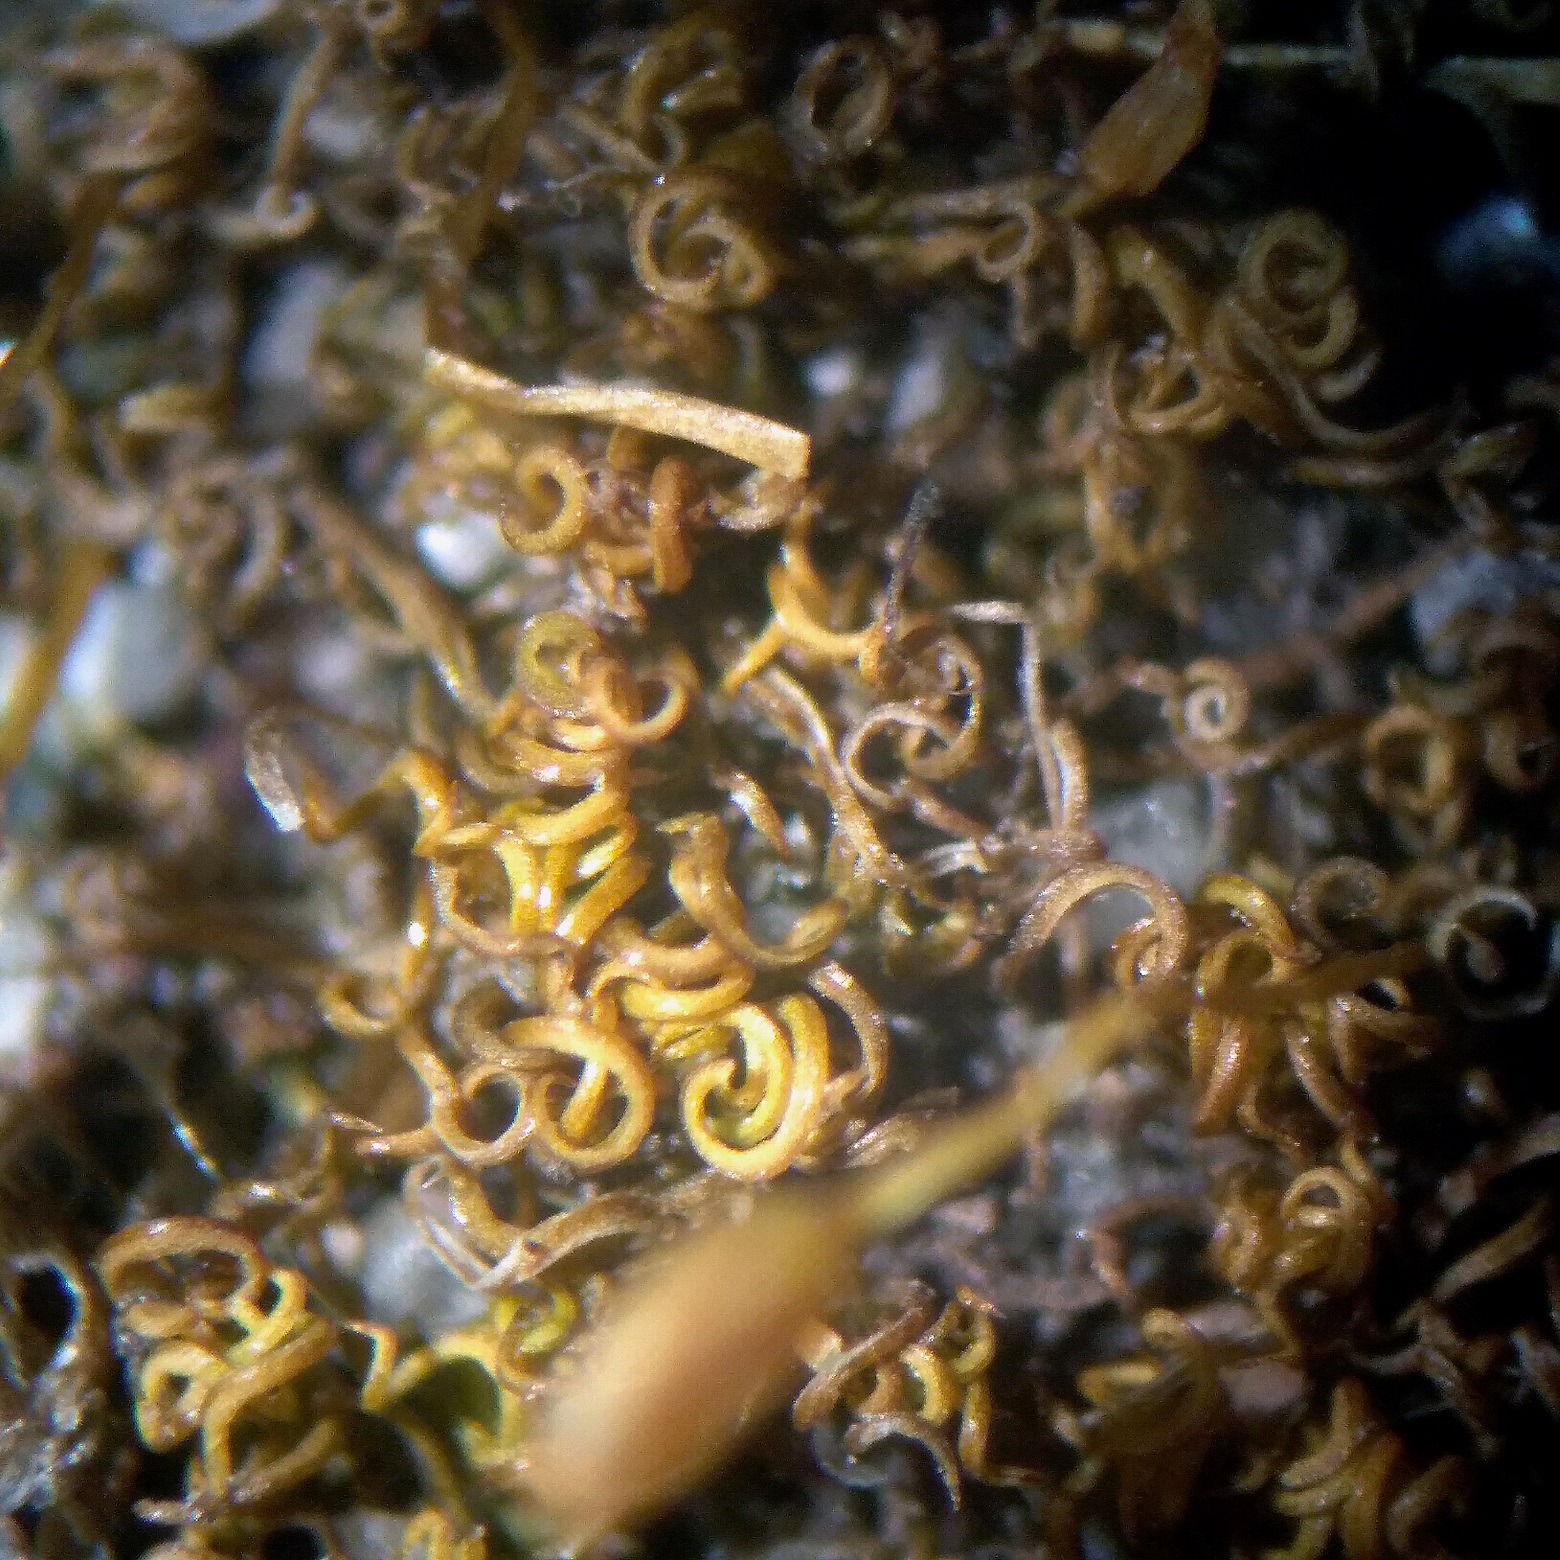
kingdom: Plantae
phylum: Bryophyta
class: Bryopsida
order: Pottiales
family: Pottiaceae
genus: Weissia
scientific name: Weissia brachycarpa
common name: Tykvægget hindemund
